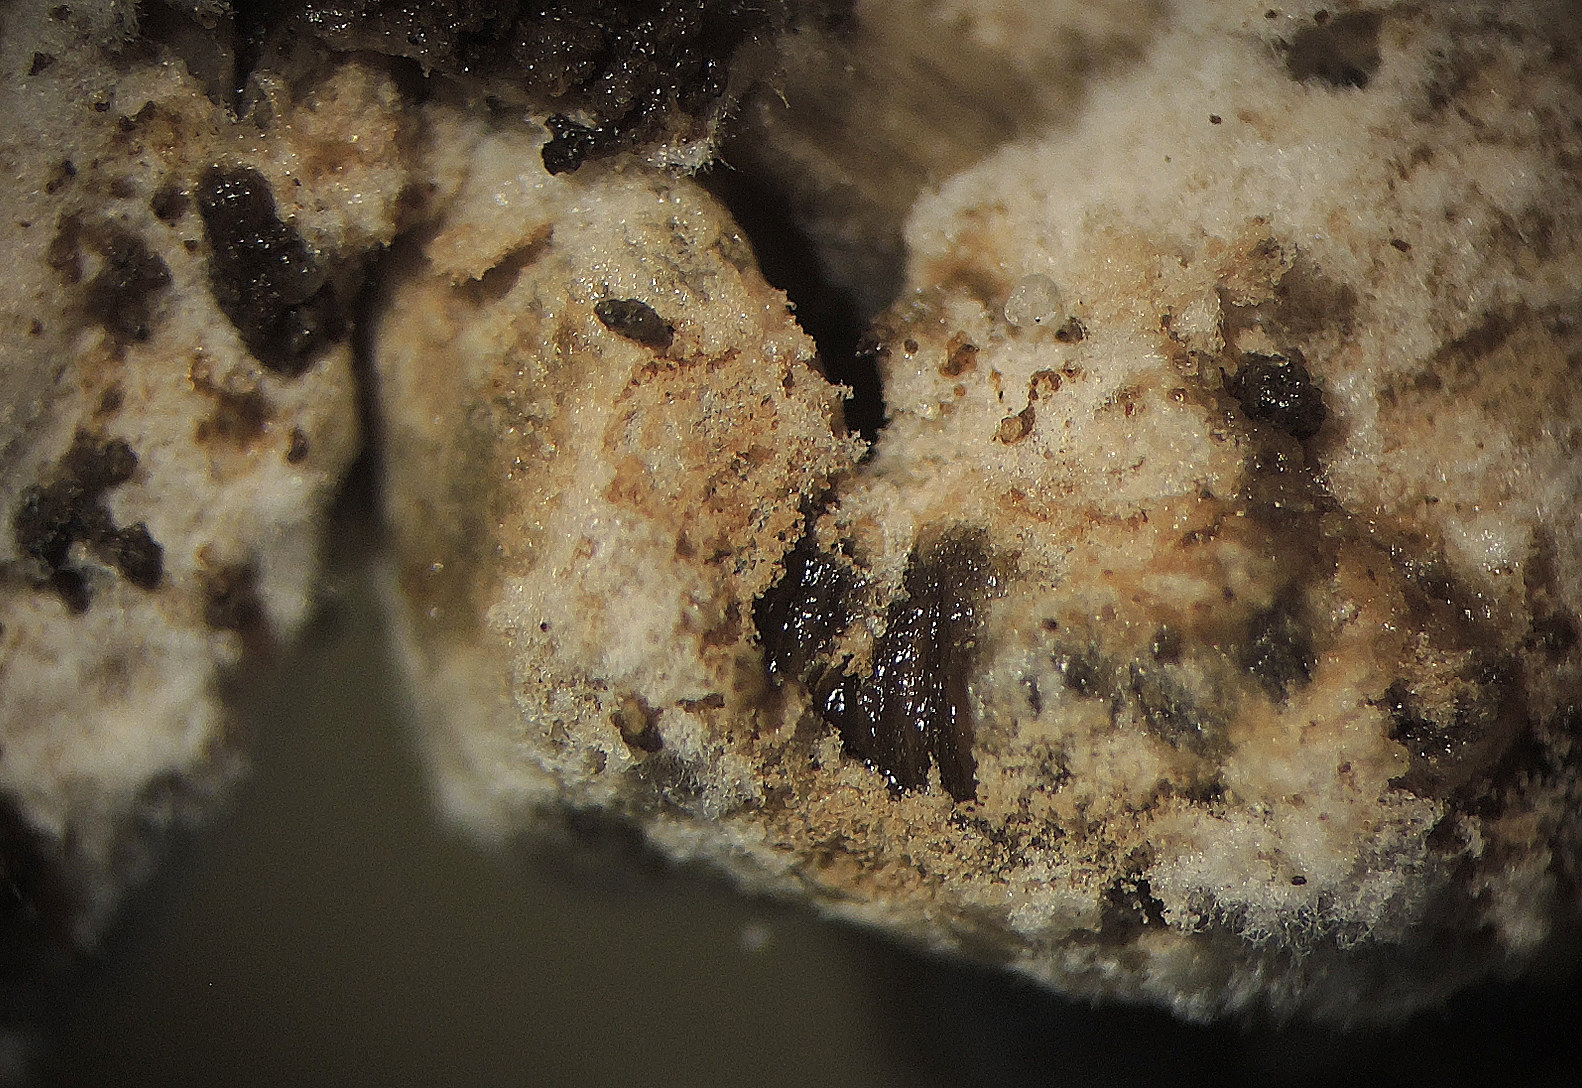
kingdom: Fungi
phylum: Ascomycota
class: Sordariomycetes
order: Hypocreales
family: Hypocreaceae
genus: Mycogone
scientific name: Mycogone
